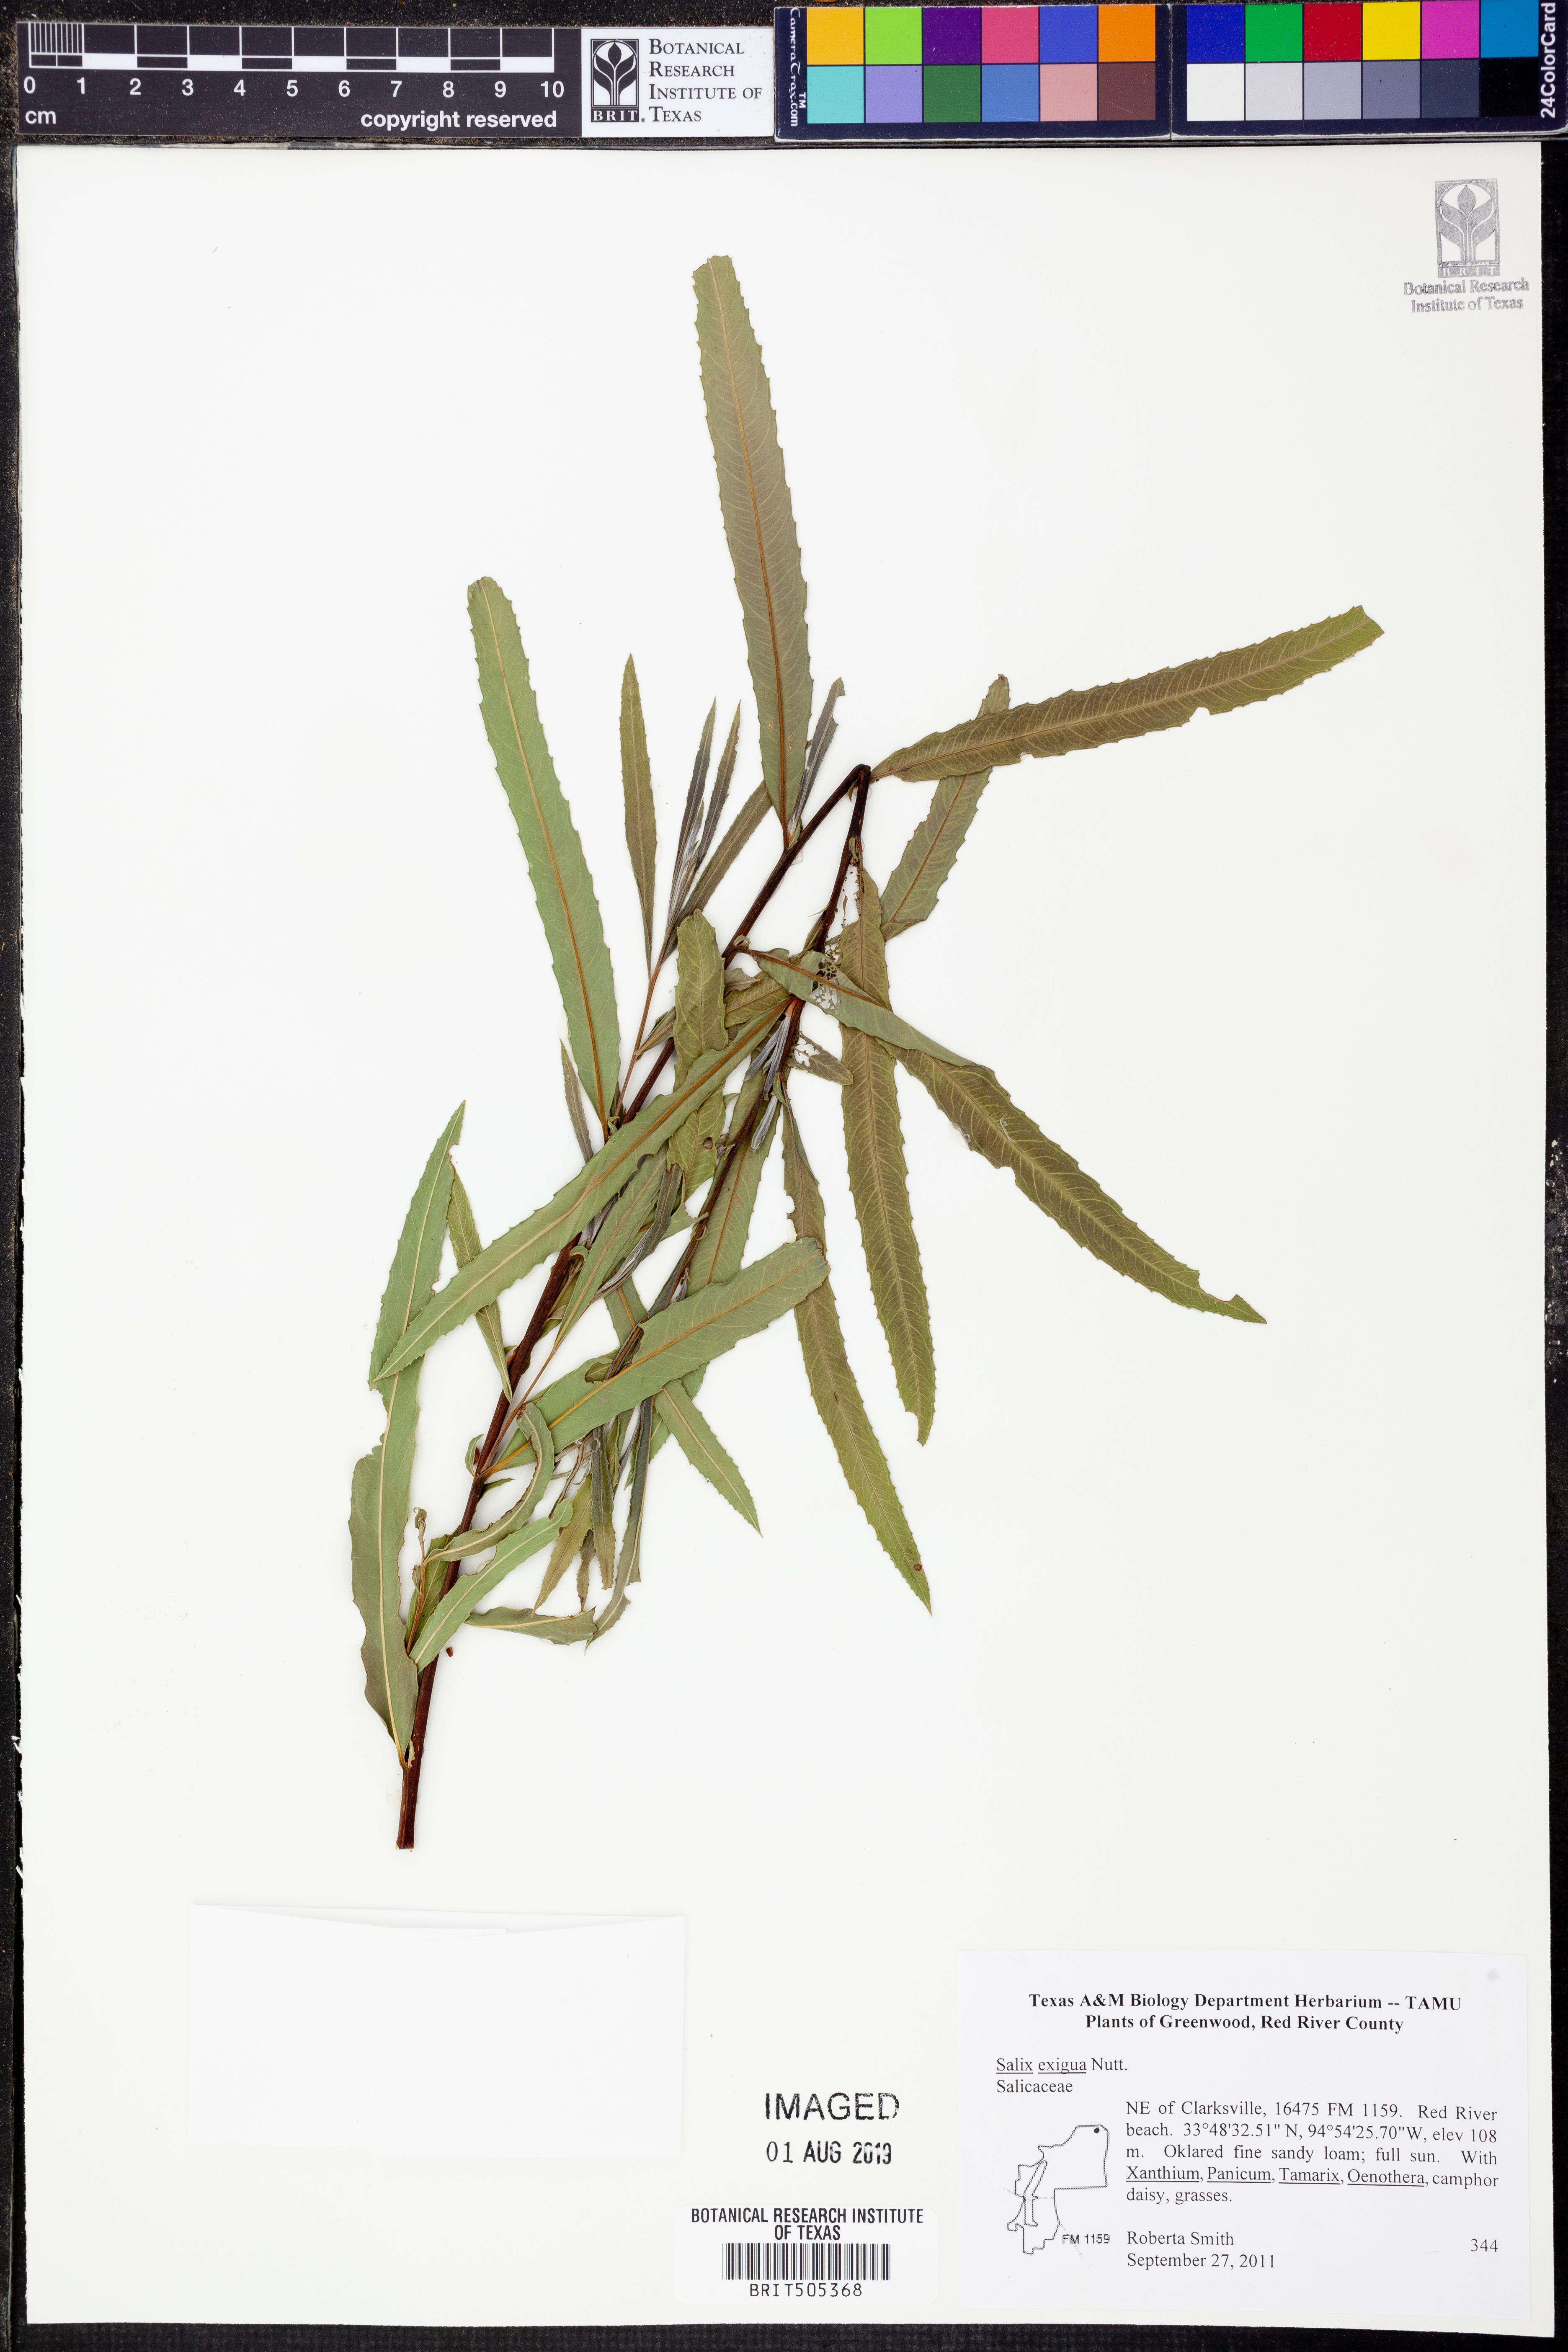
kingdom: Plantae
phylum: Tracheophyta
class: Magnoliopsida
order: Malpighiales
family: Salicaceae
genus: Salix
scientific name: Salix nigra
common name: Black willow
